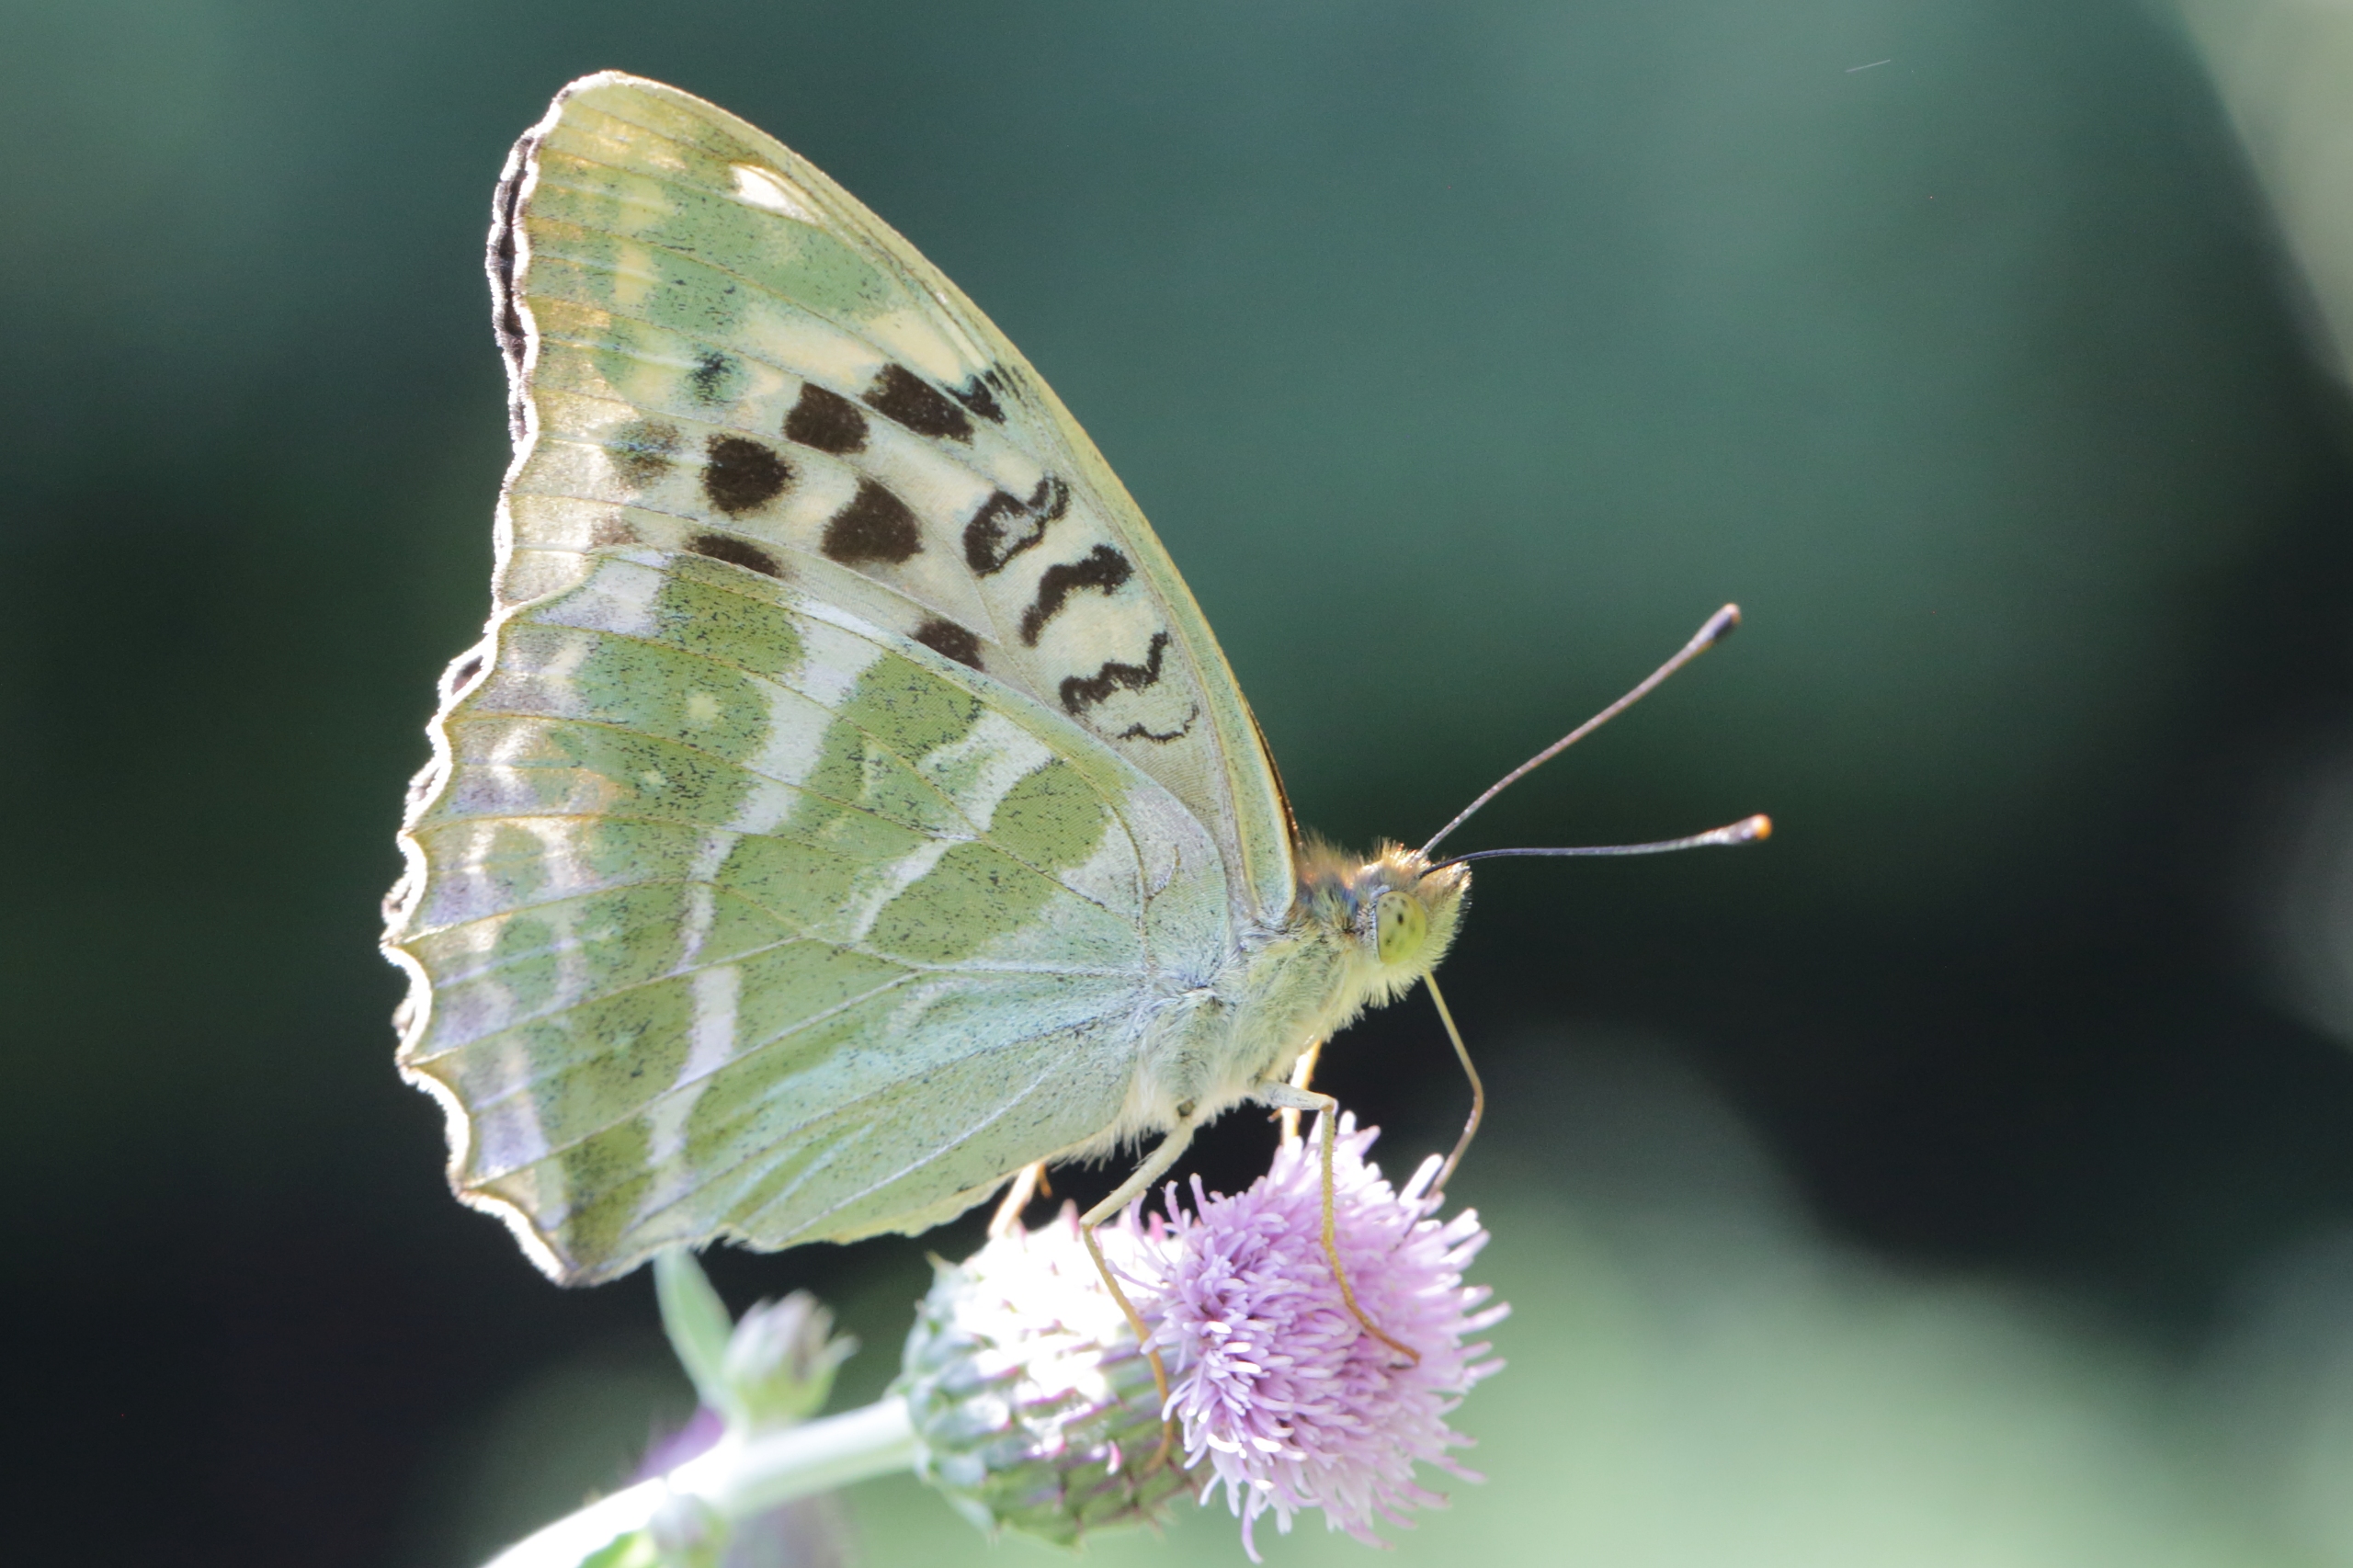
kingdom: Animalia
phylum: Arthropoda
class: Insecta
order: Lepidoptera
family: Nymphalidae
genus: Argynnis
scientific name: Argynnis paphia
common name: Kejserkåbe
